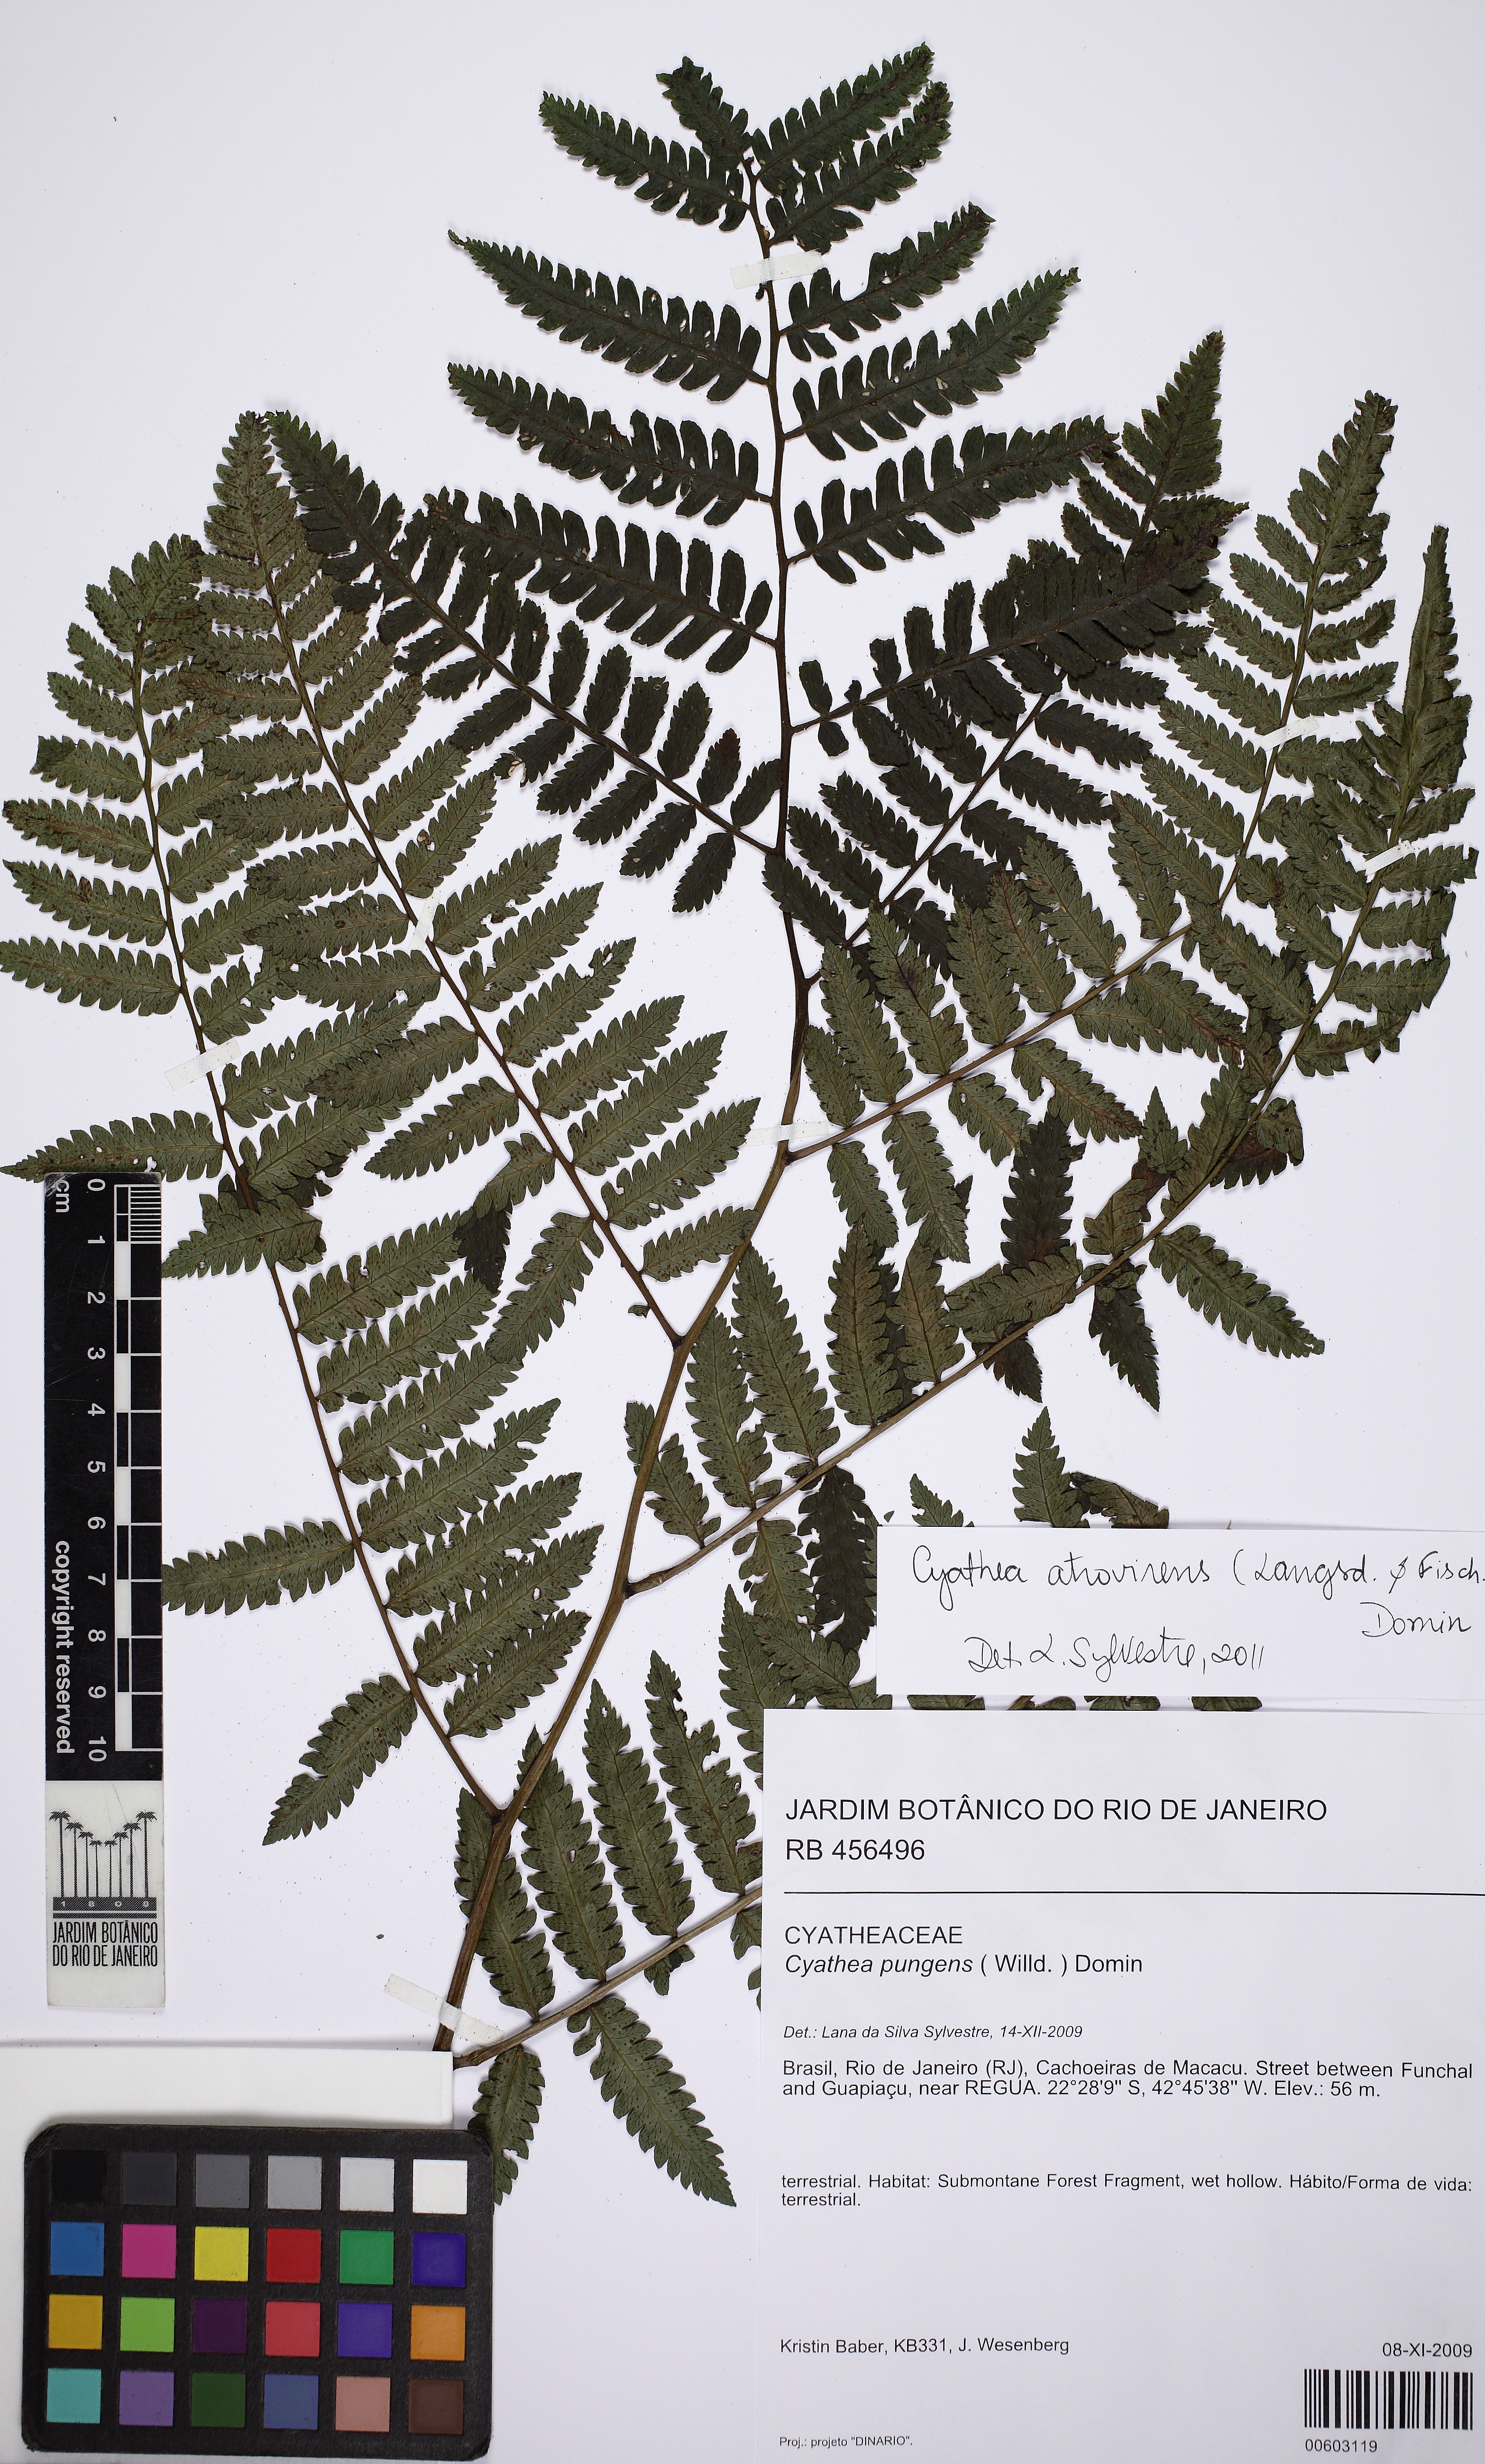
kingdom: Plantae
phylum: Tracheophyta
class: Polypodiopsida
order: Cyatheales
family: Cyatheaceae
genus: Cyathea
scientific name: Cyathea atrovirens
